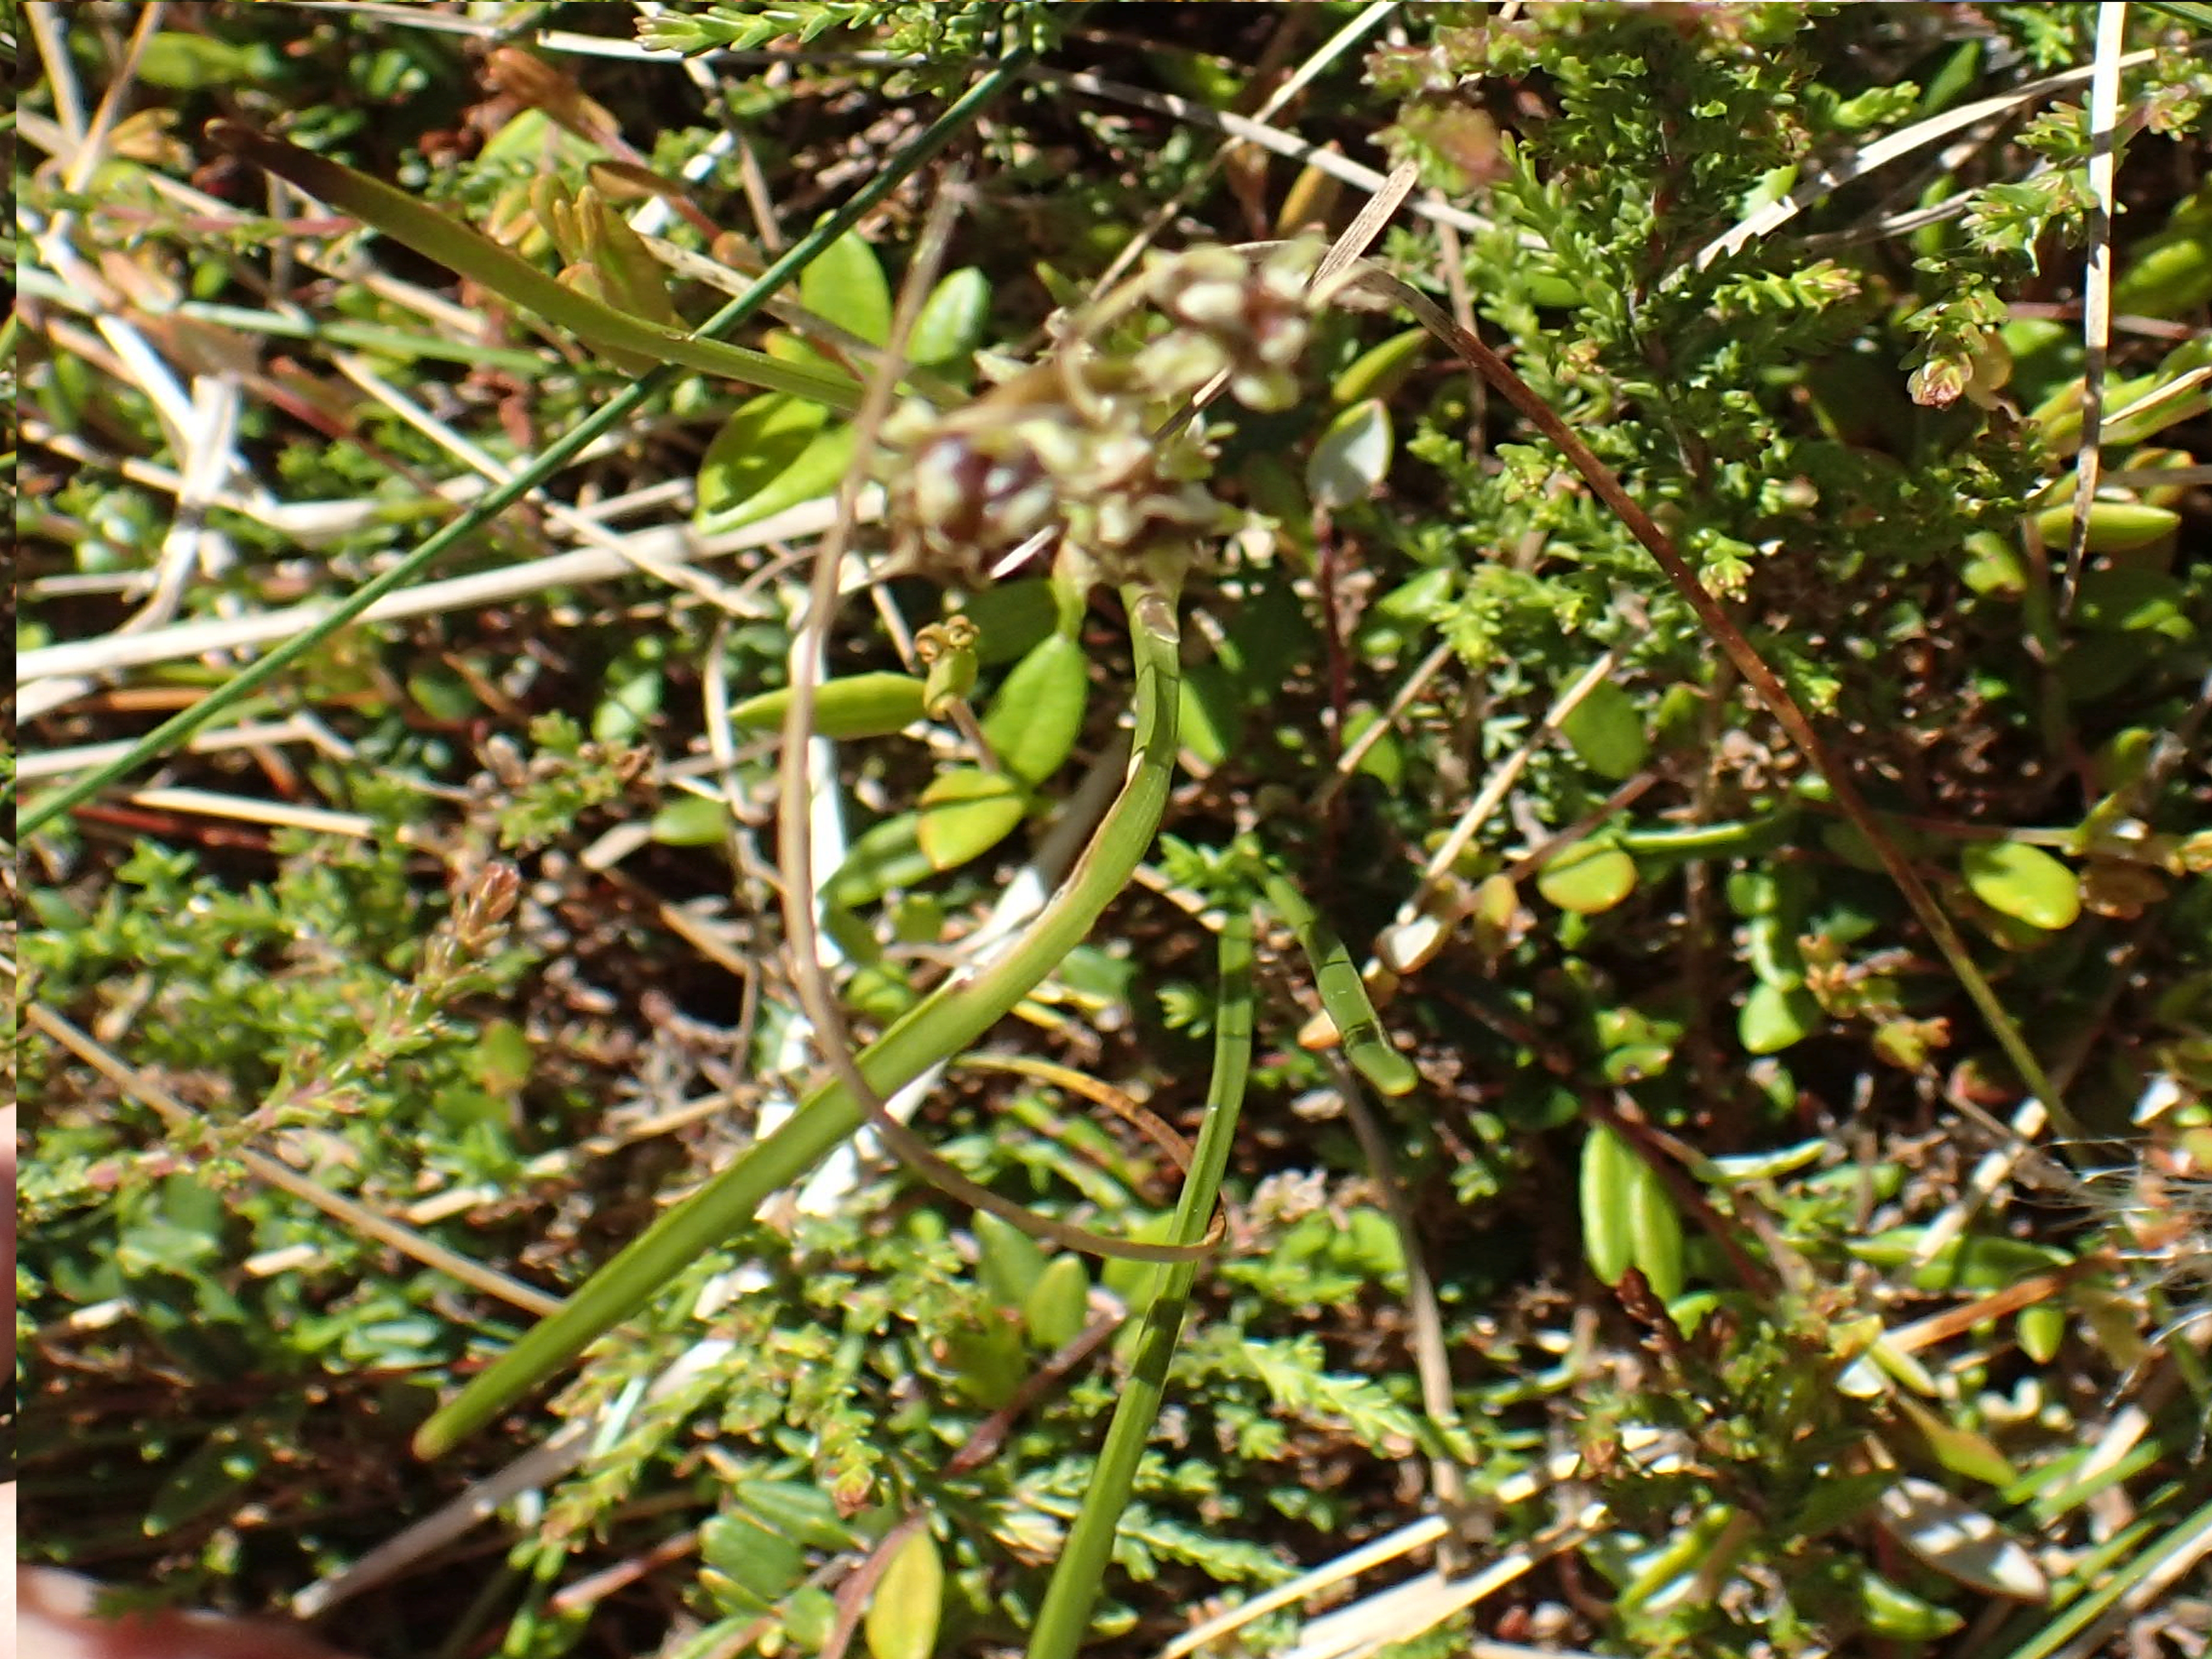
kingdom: Plantae
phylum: Tracheophyta
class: Liliopsida
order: Alismatales
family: Scheuchzeriaceae
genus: Scheuchzeria
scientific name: Scheuchzeria palustris
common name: Blomstersiv
